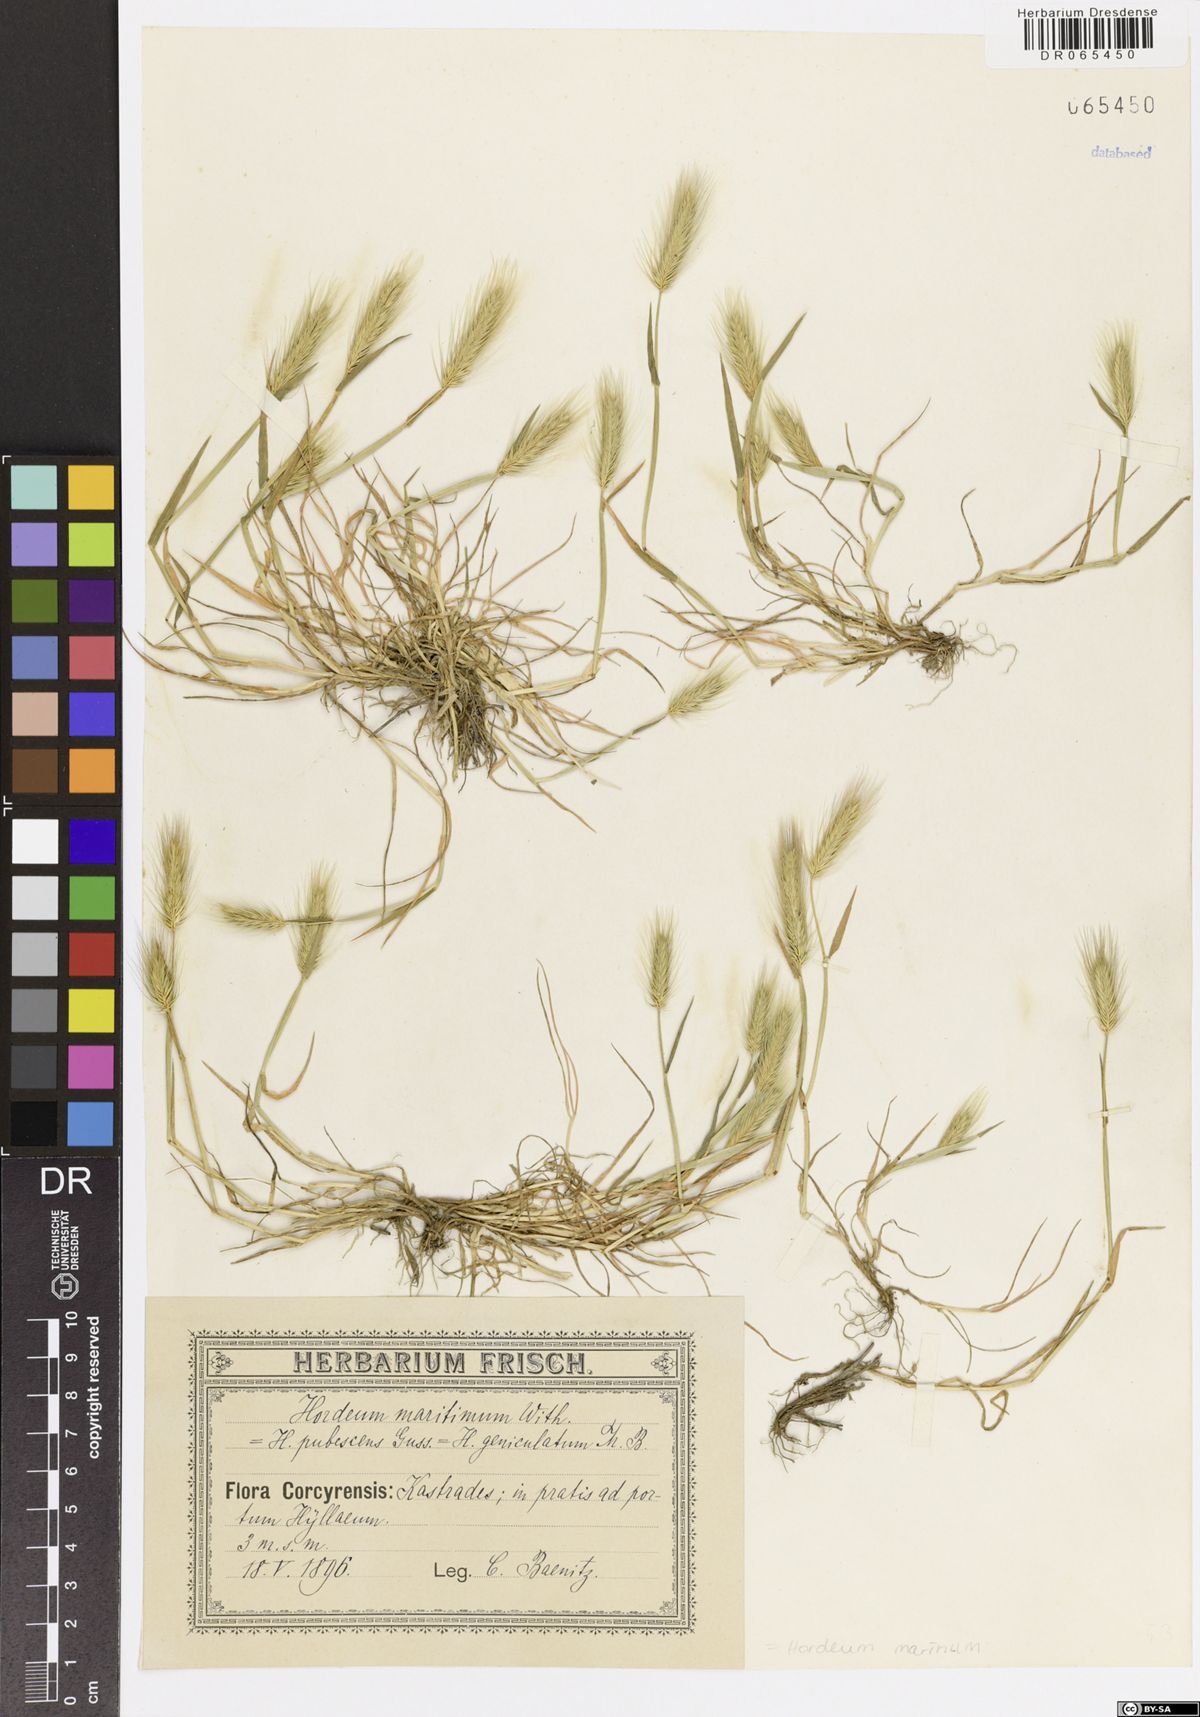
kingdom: Plantae
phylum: Tracheophyta
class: Liliopsida
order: Poales
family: Poaceae
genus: Hordeum
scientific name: Hordeum marinum
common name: Sea barley
